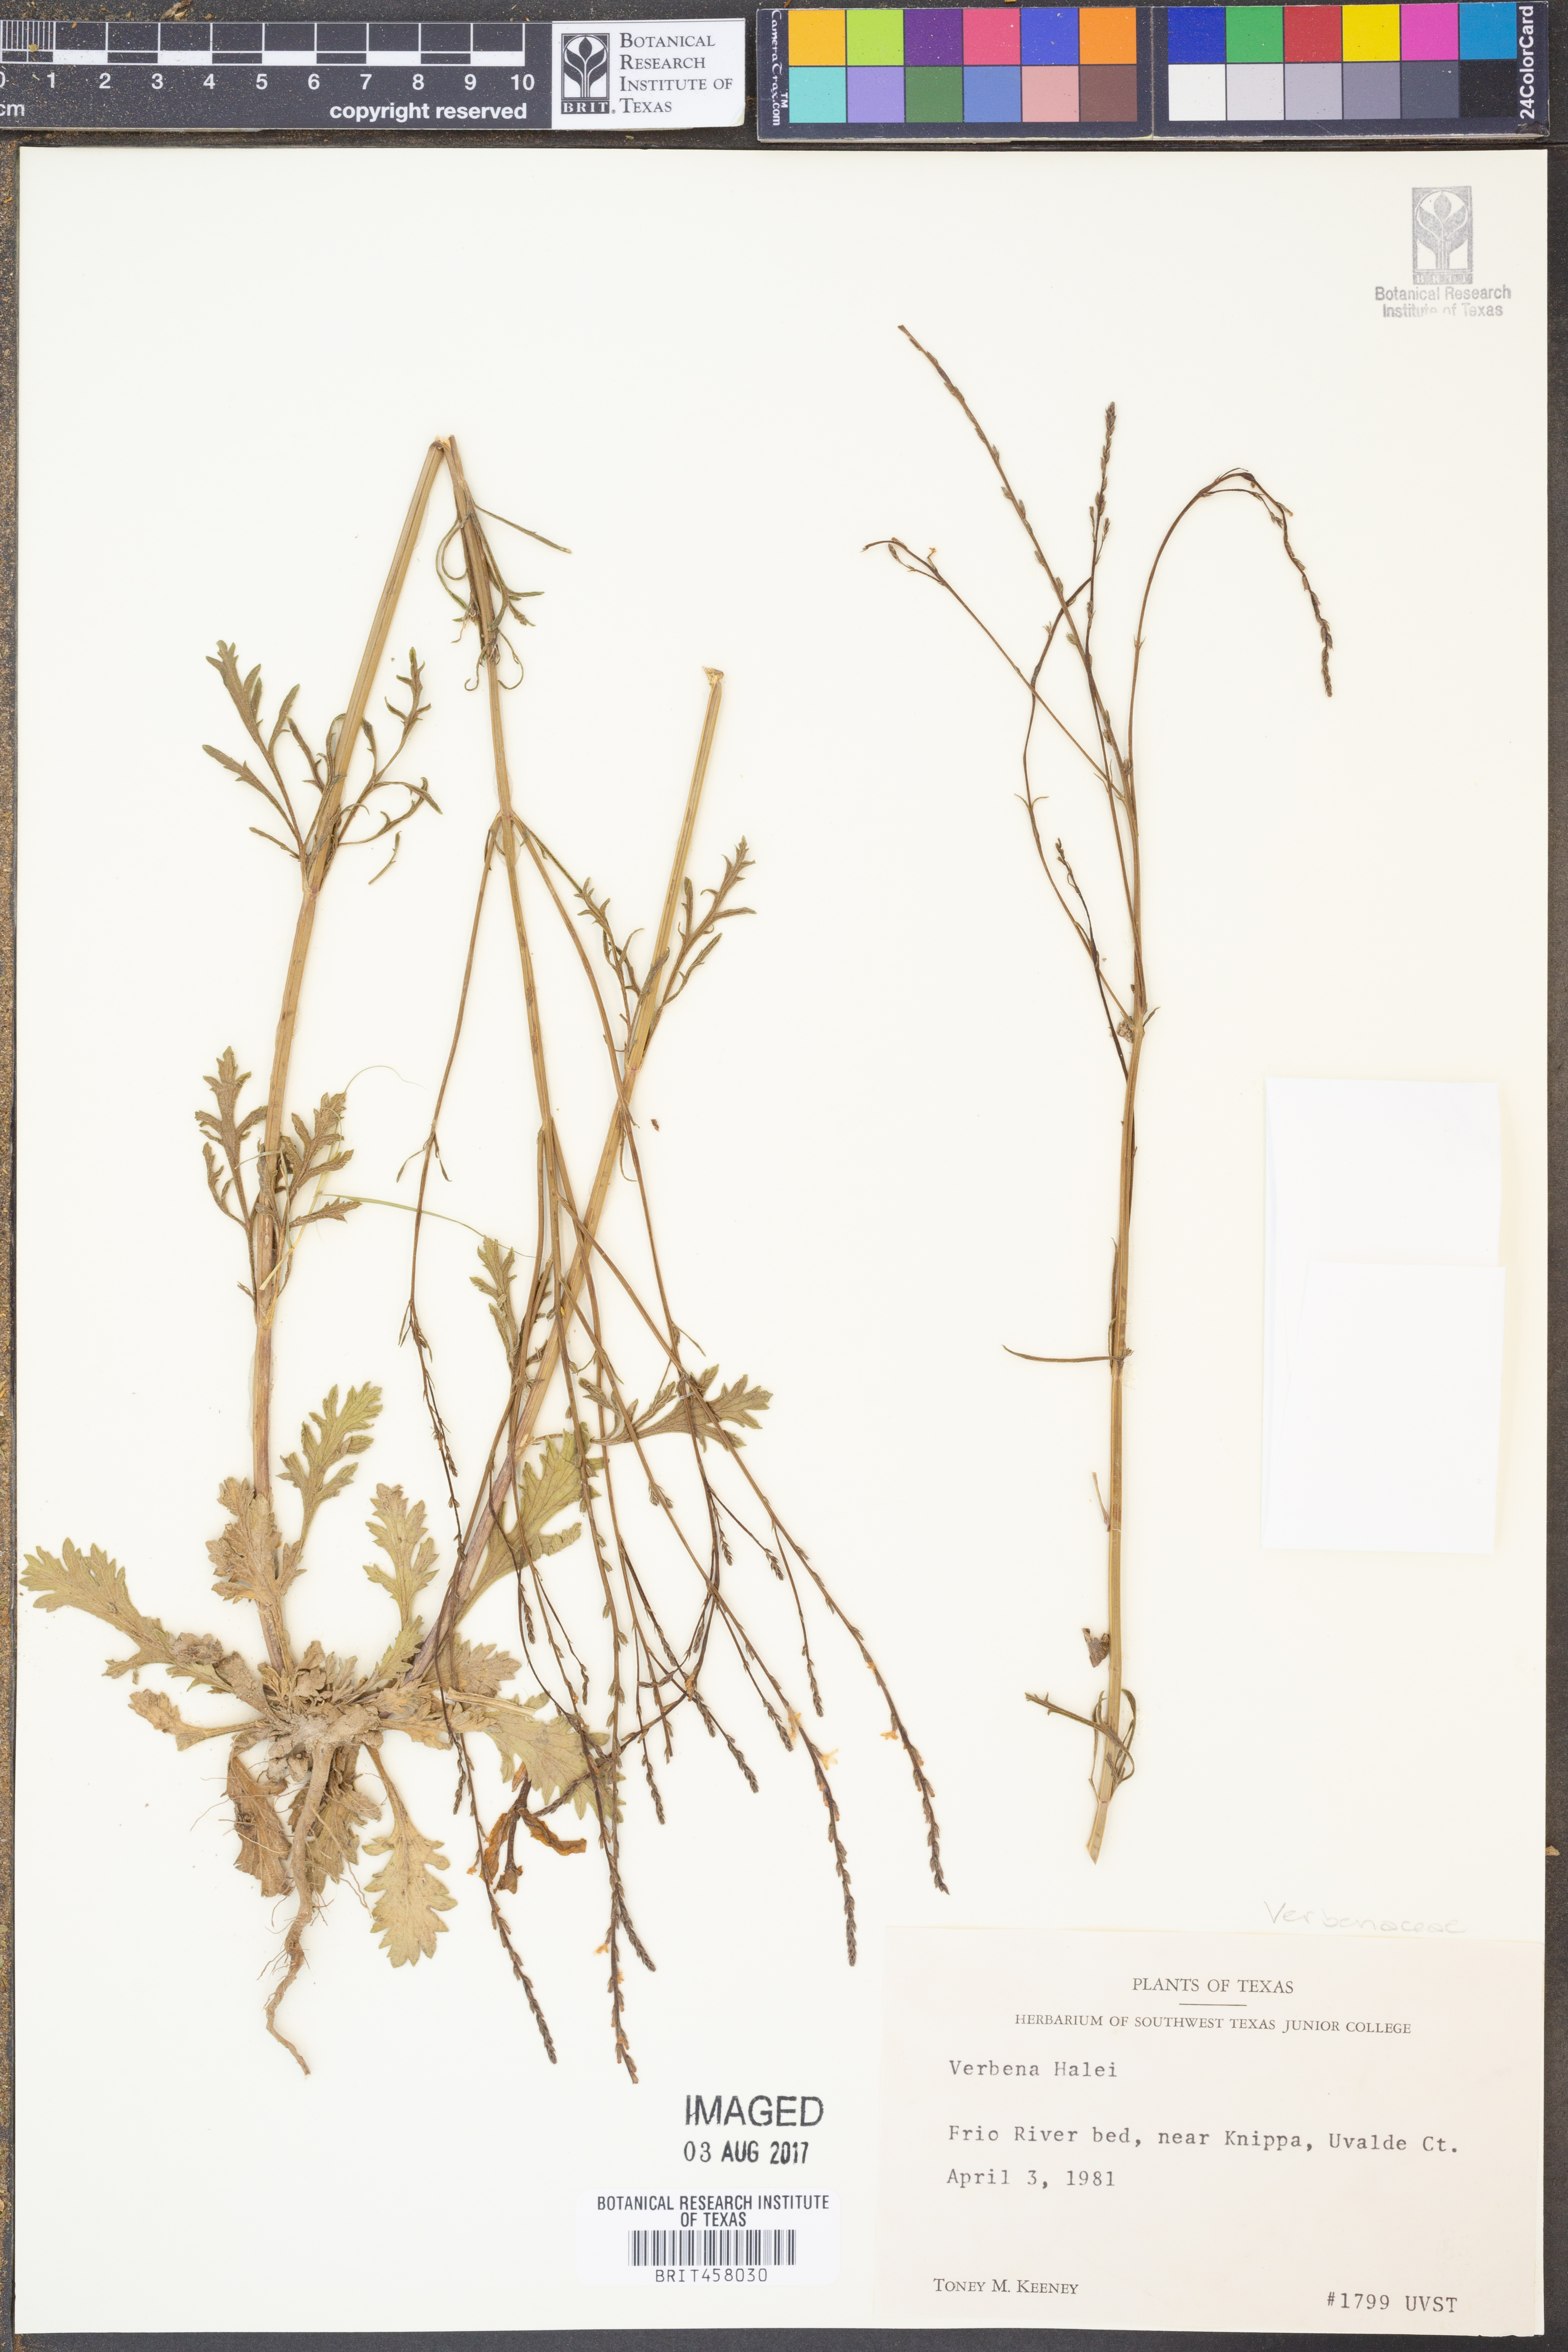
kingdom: Plantae
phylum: Tracheophyta
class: Magnoliopsida
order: Lamiales
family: Verbenaceae
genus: Verbena
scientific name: Verbena halei
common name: Texas vervain
